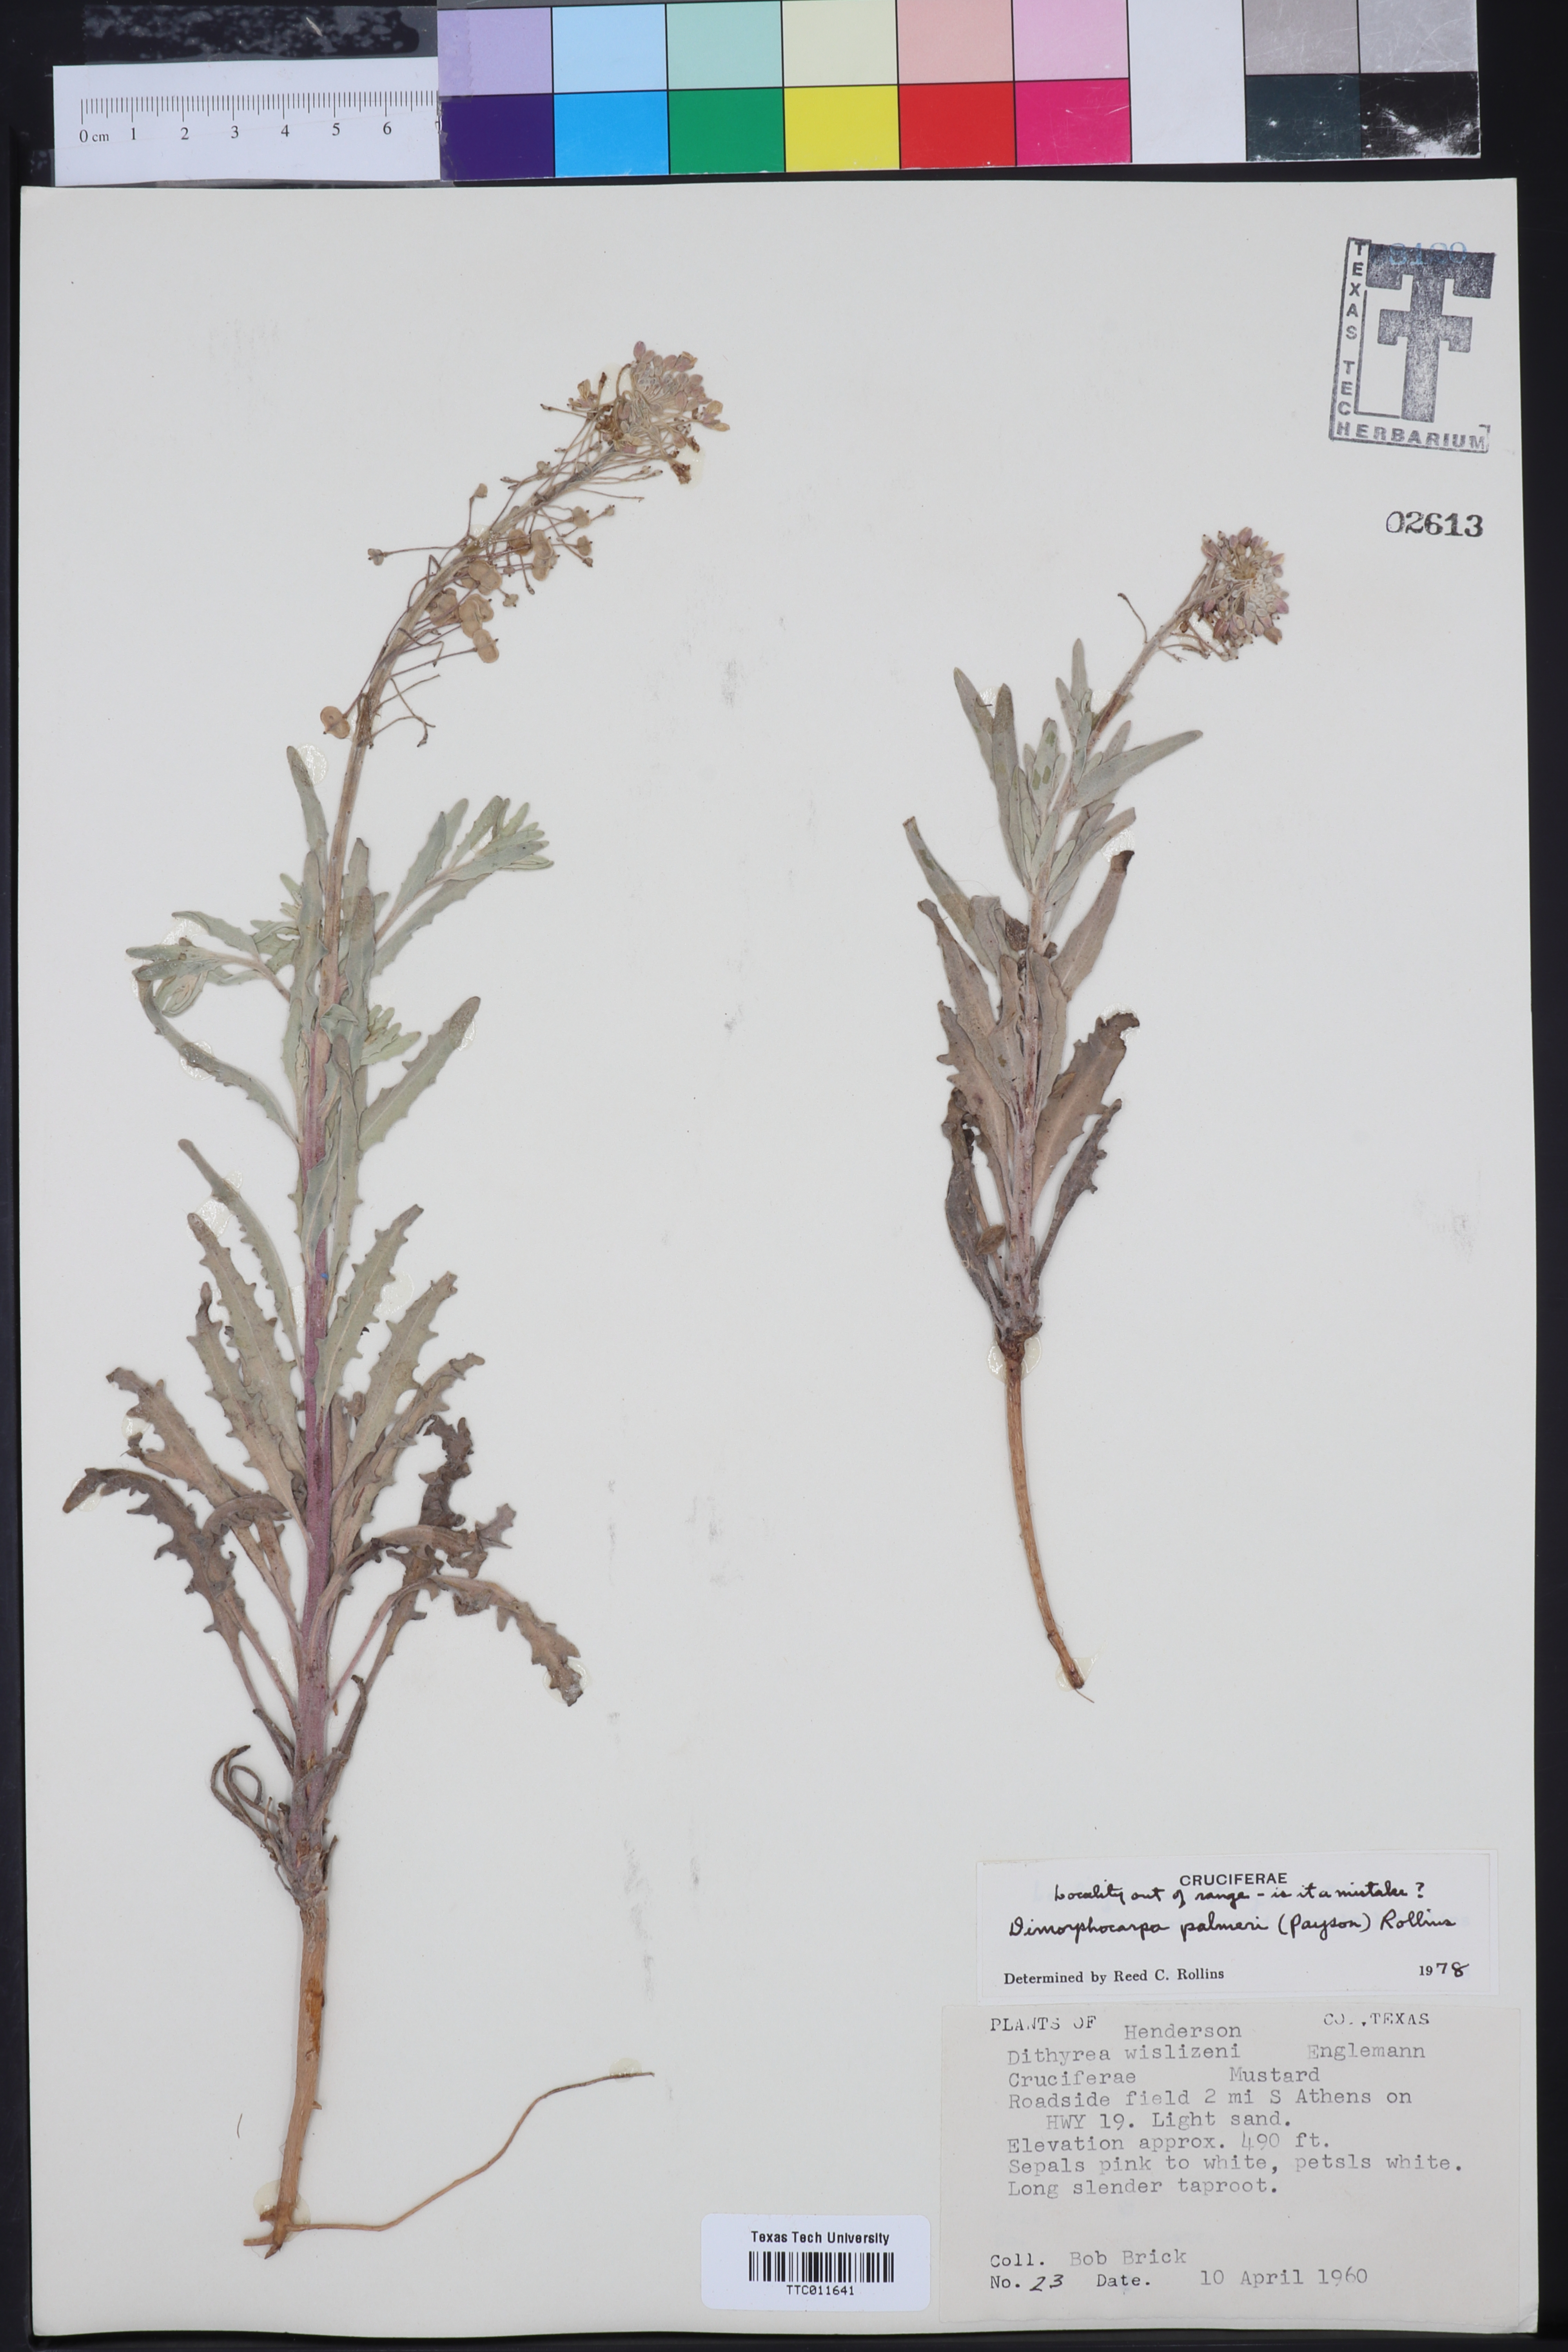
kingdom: Plantae
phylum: Tracheophyta
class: Magnoliopsida
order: Brassicales
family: Brassicaceae
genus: Dimorphocarpa
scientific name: Dimorphocarpa candicans
